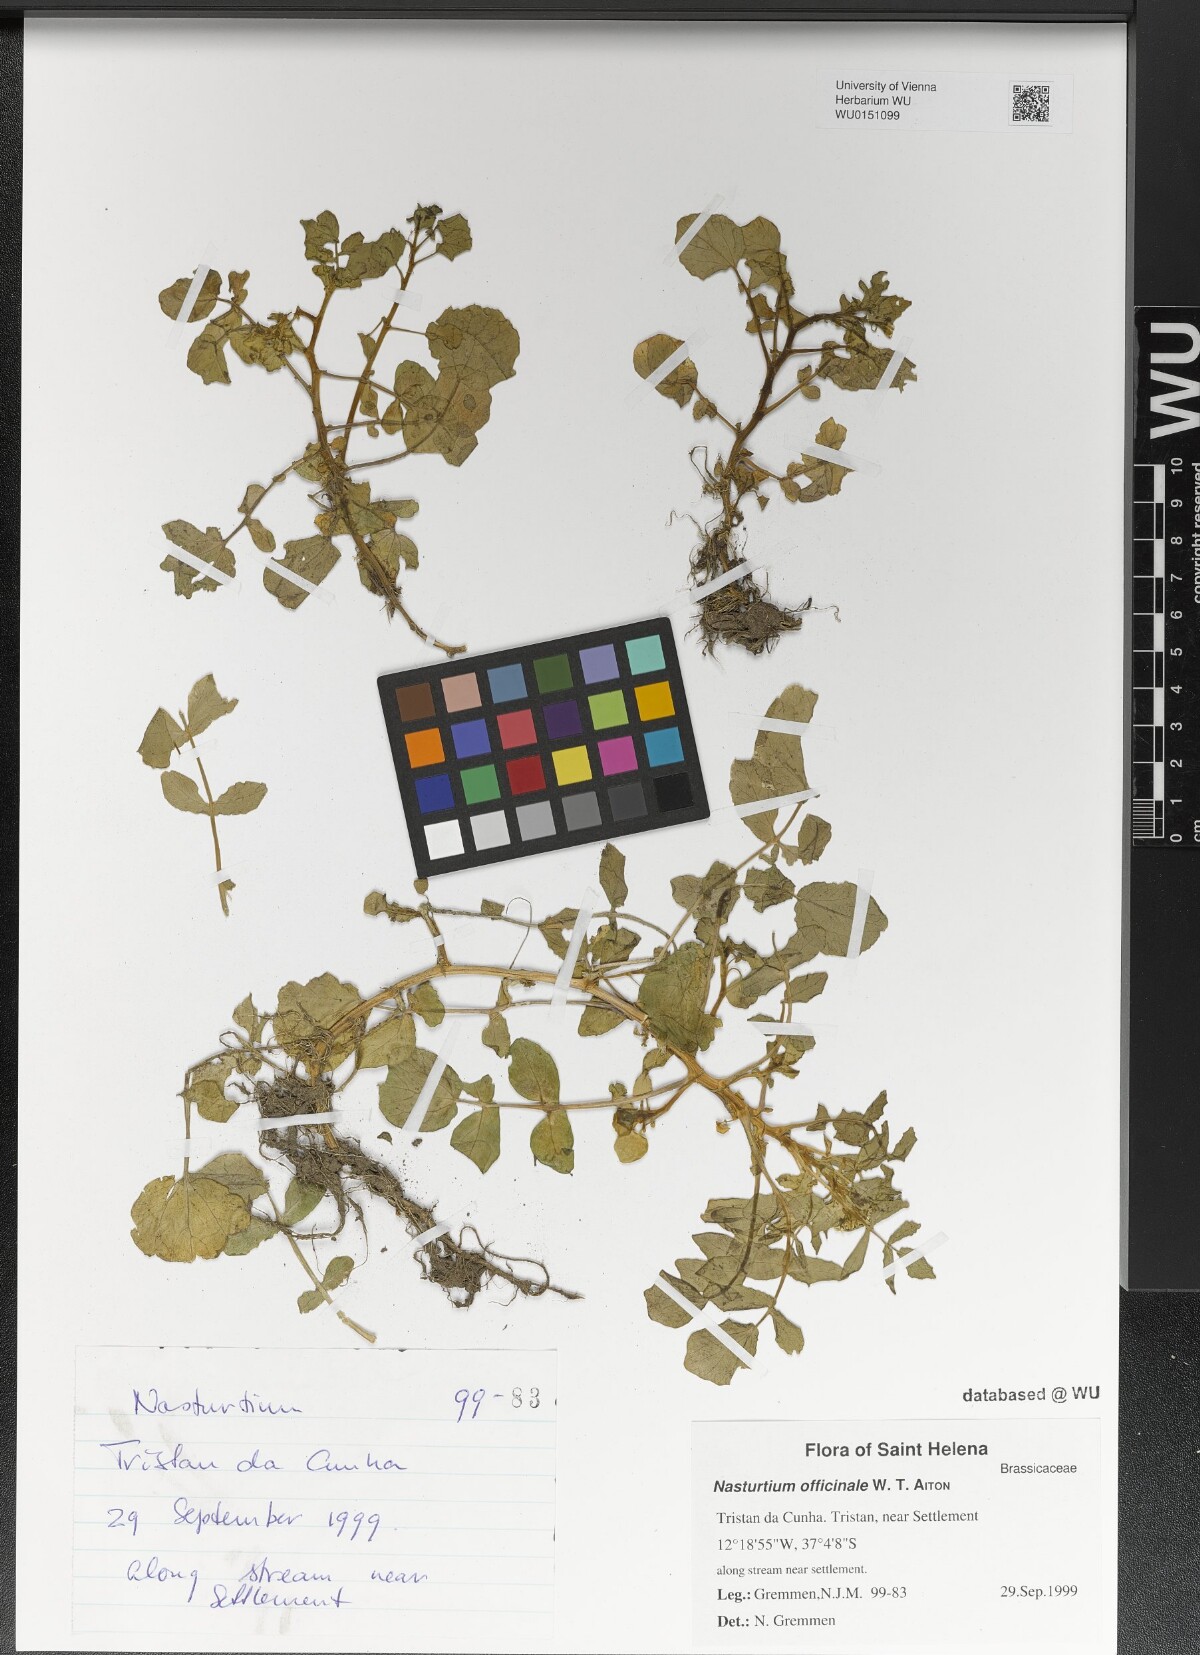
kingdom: Plantae
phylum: Tracheophyta
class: Magnoliopsida
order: Brassicales
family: Brassicaceae
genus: Nasturtium
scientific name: Nasturtium officinale
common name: Watercress
